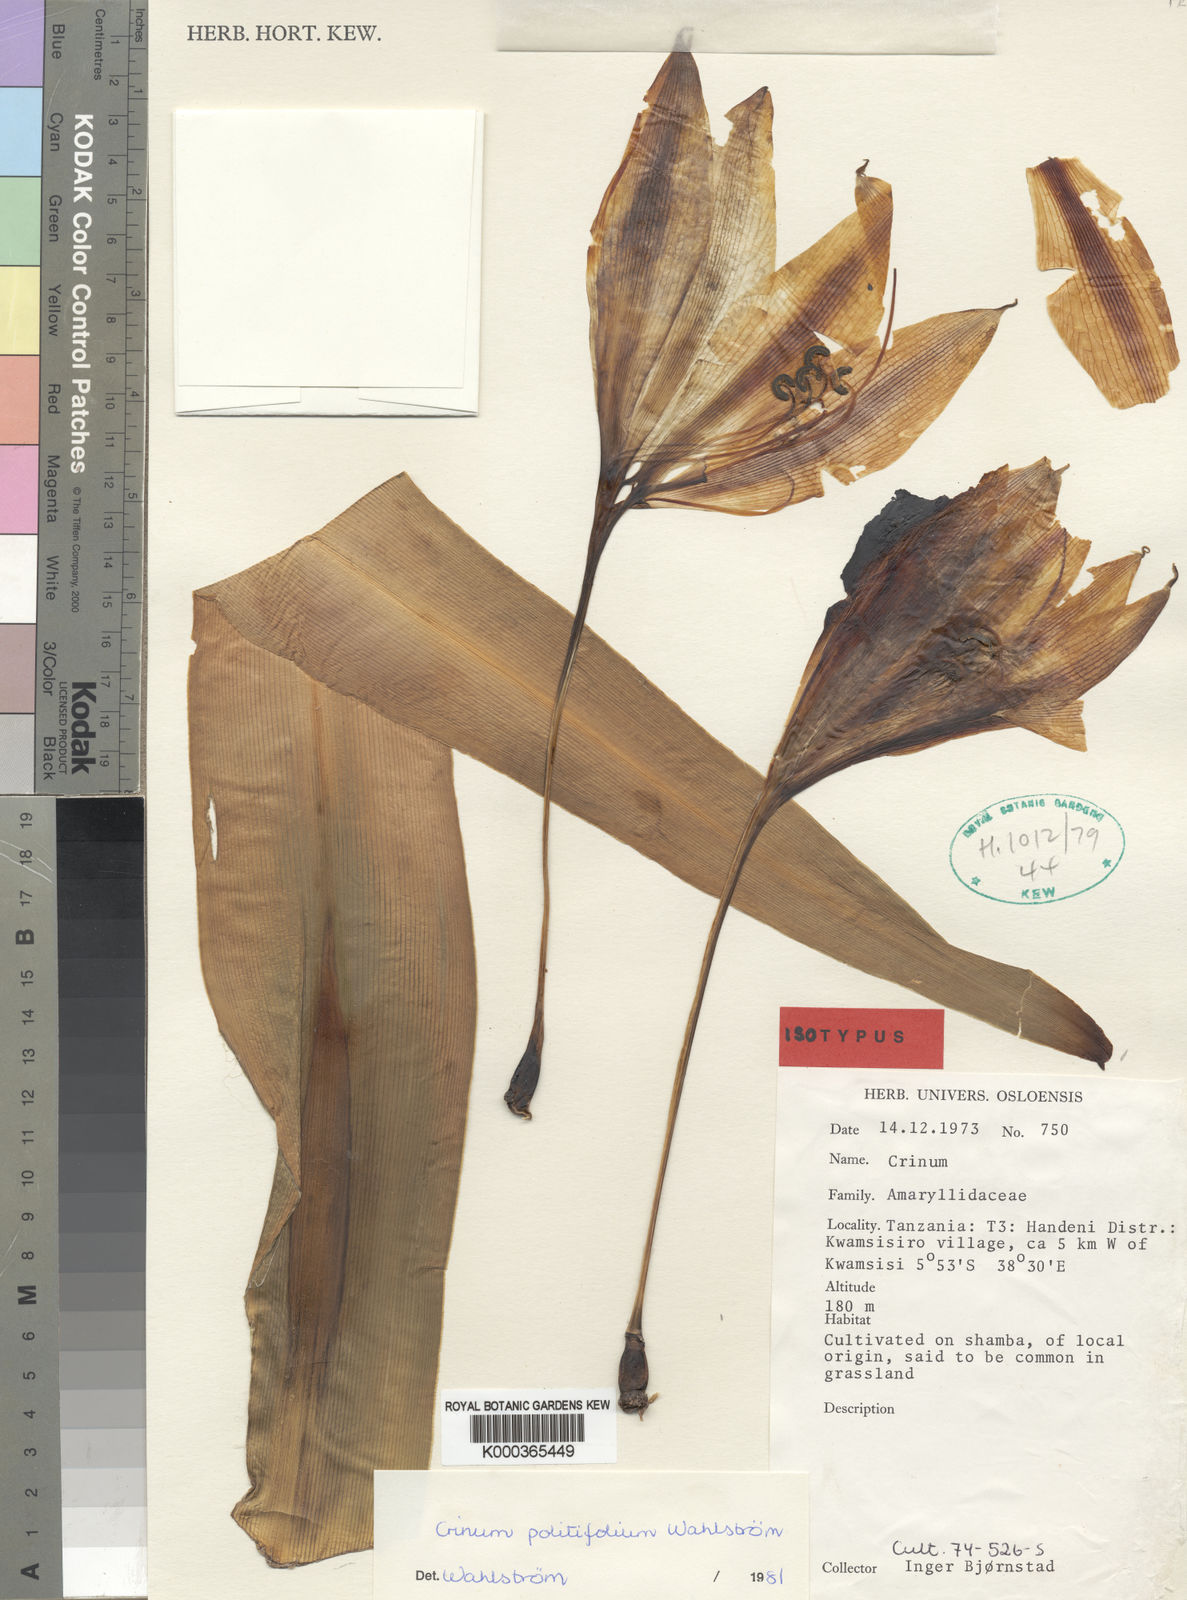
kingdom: Plantae
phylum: Tracheophyta
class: Liliopsida
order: Asparagales
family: Amaryllidaceae
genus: Crinum
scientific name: Crinum
